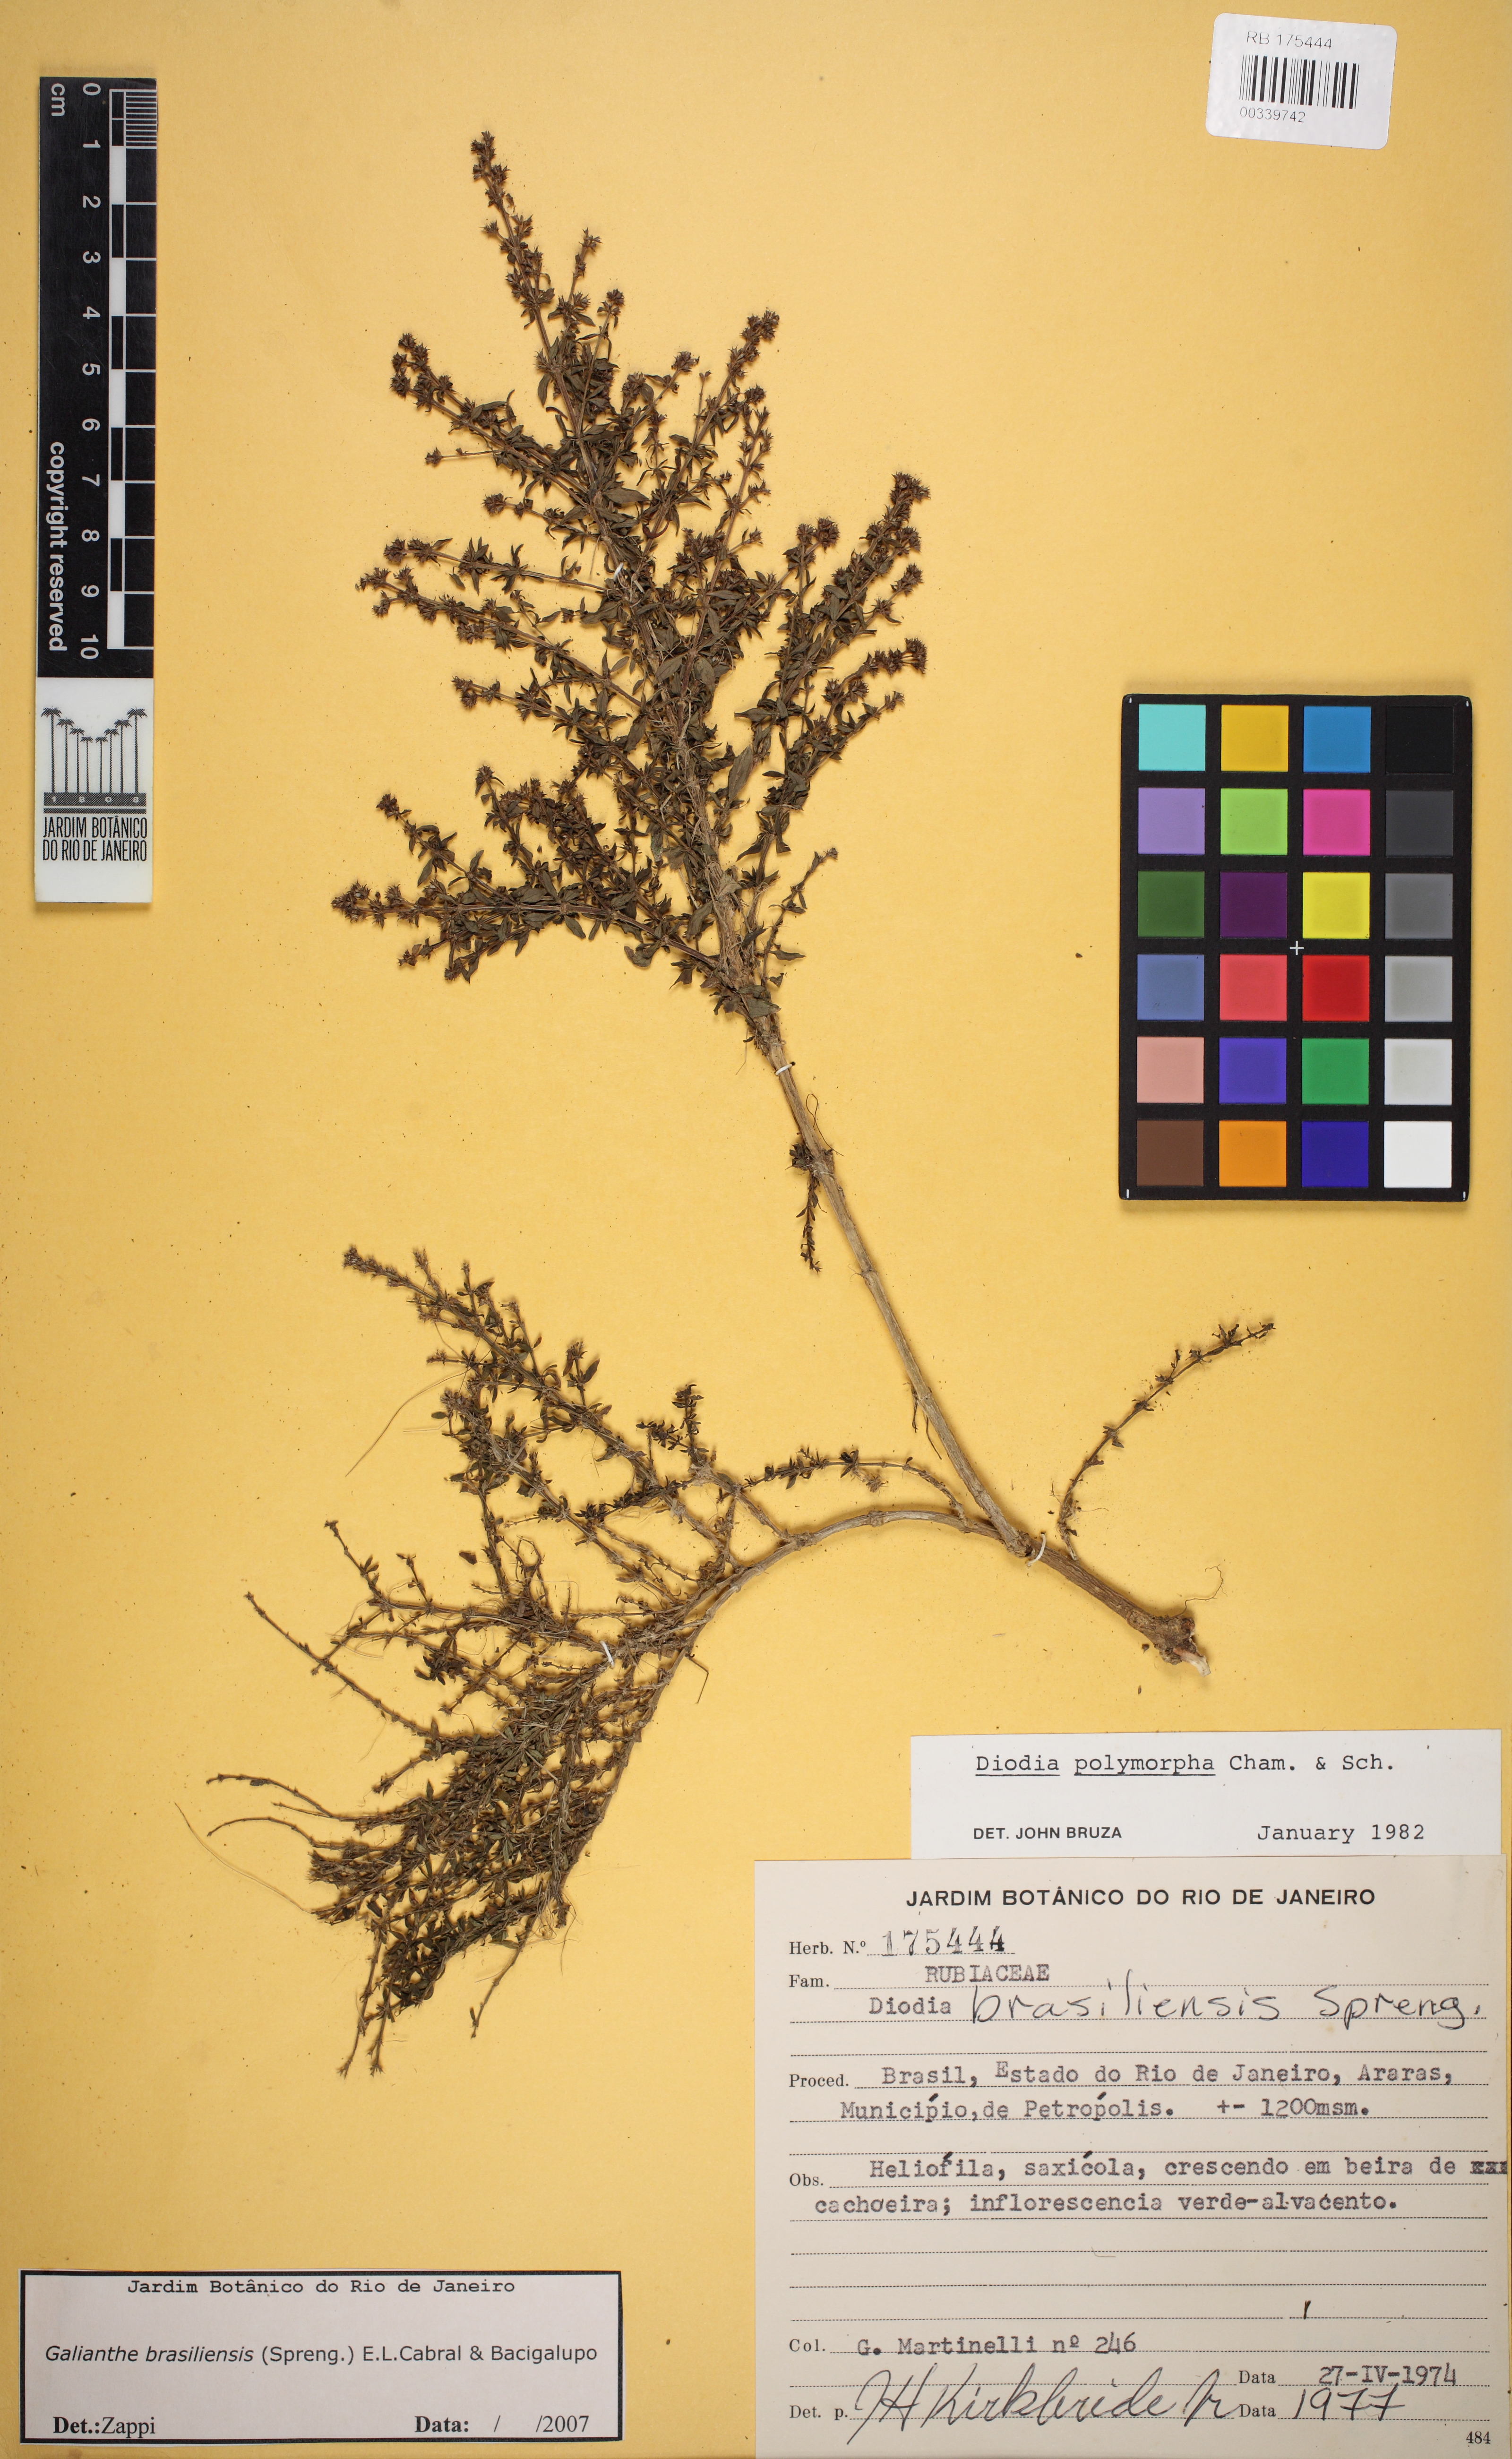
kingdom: Plantae
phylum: Tracheophyta
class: Magnoliopsida
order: Gentianales
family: Rubiaceae
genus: Galianthe
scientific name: Galianthe brasiliensis
